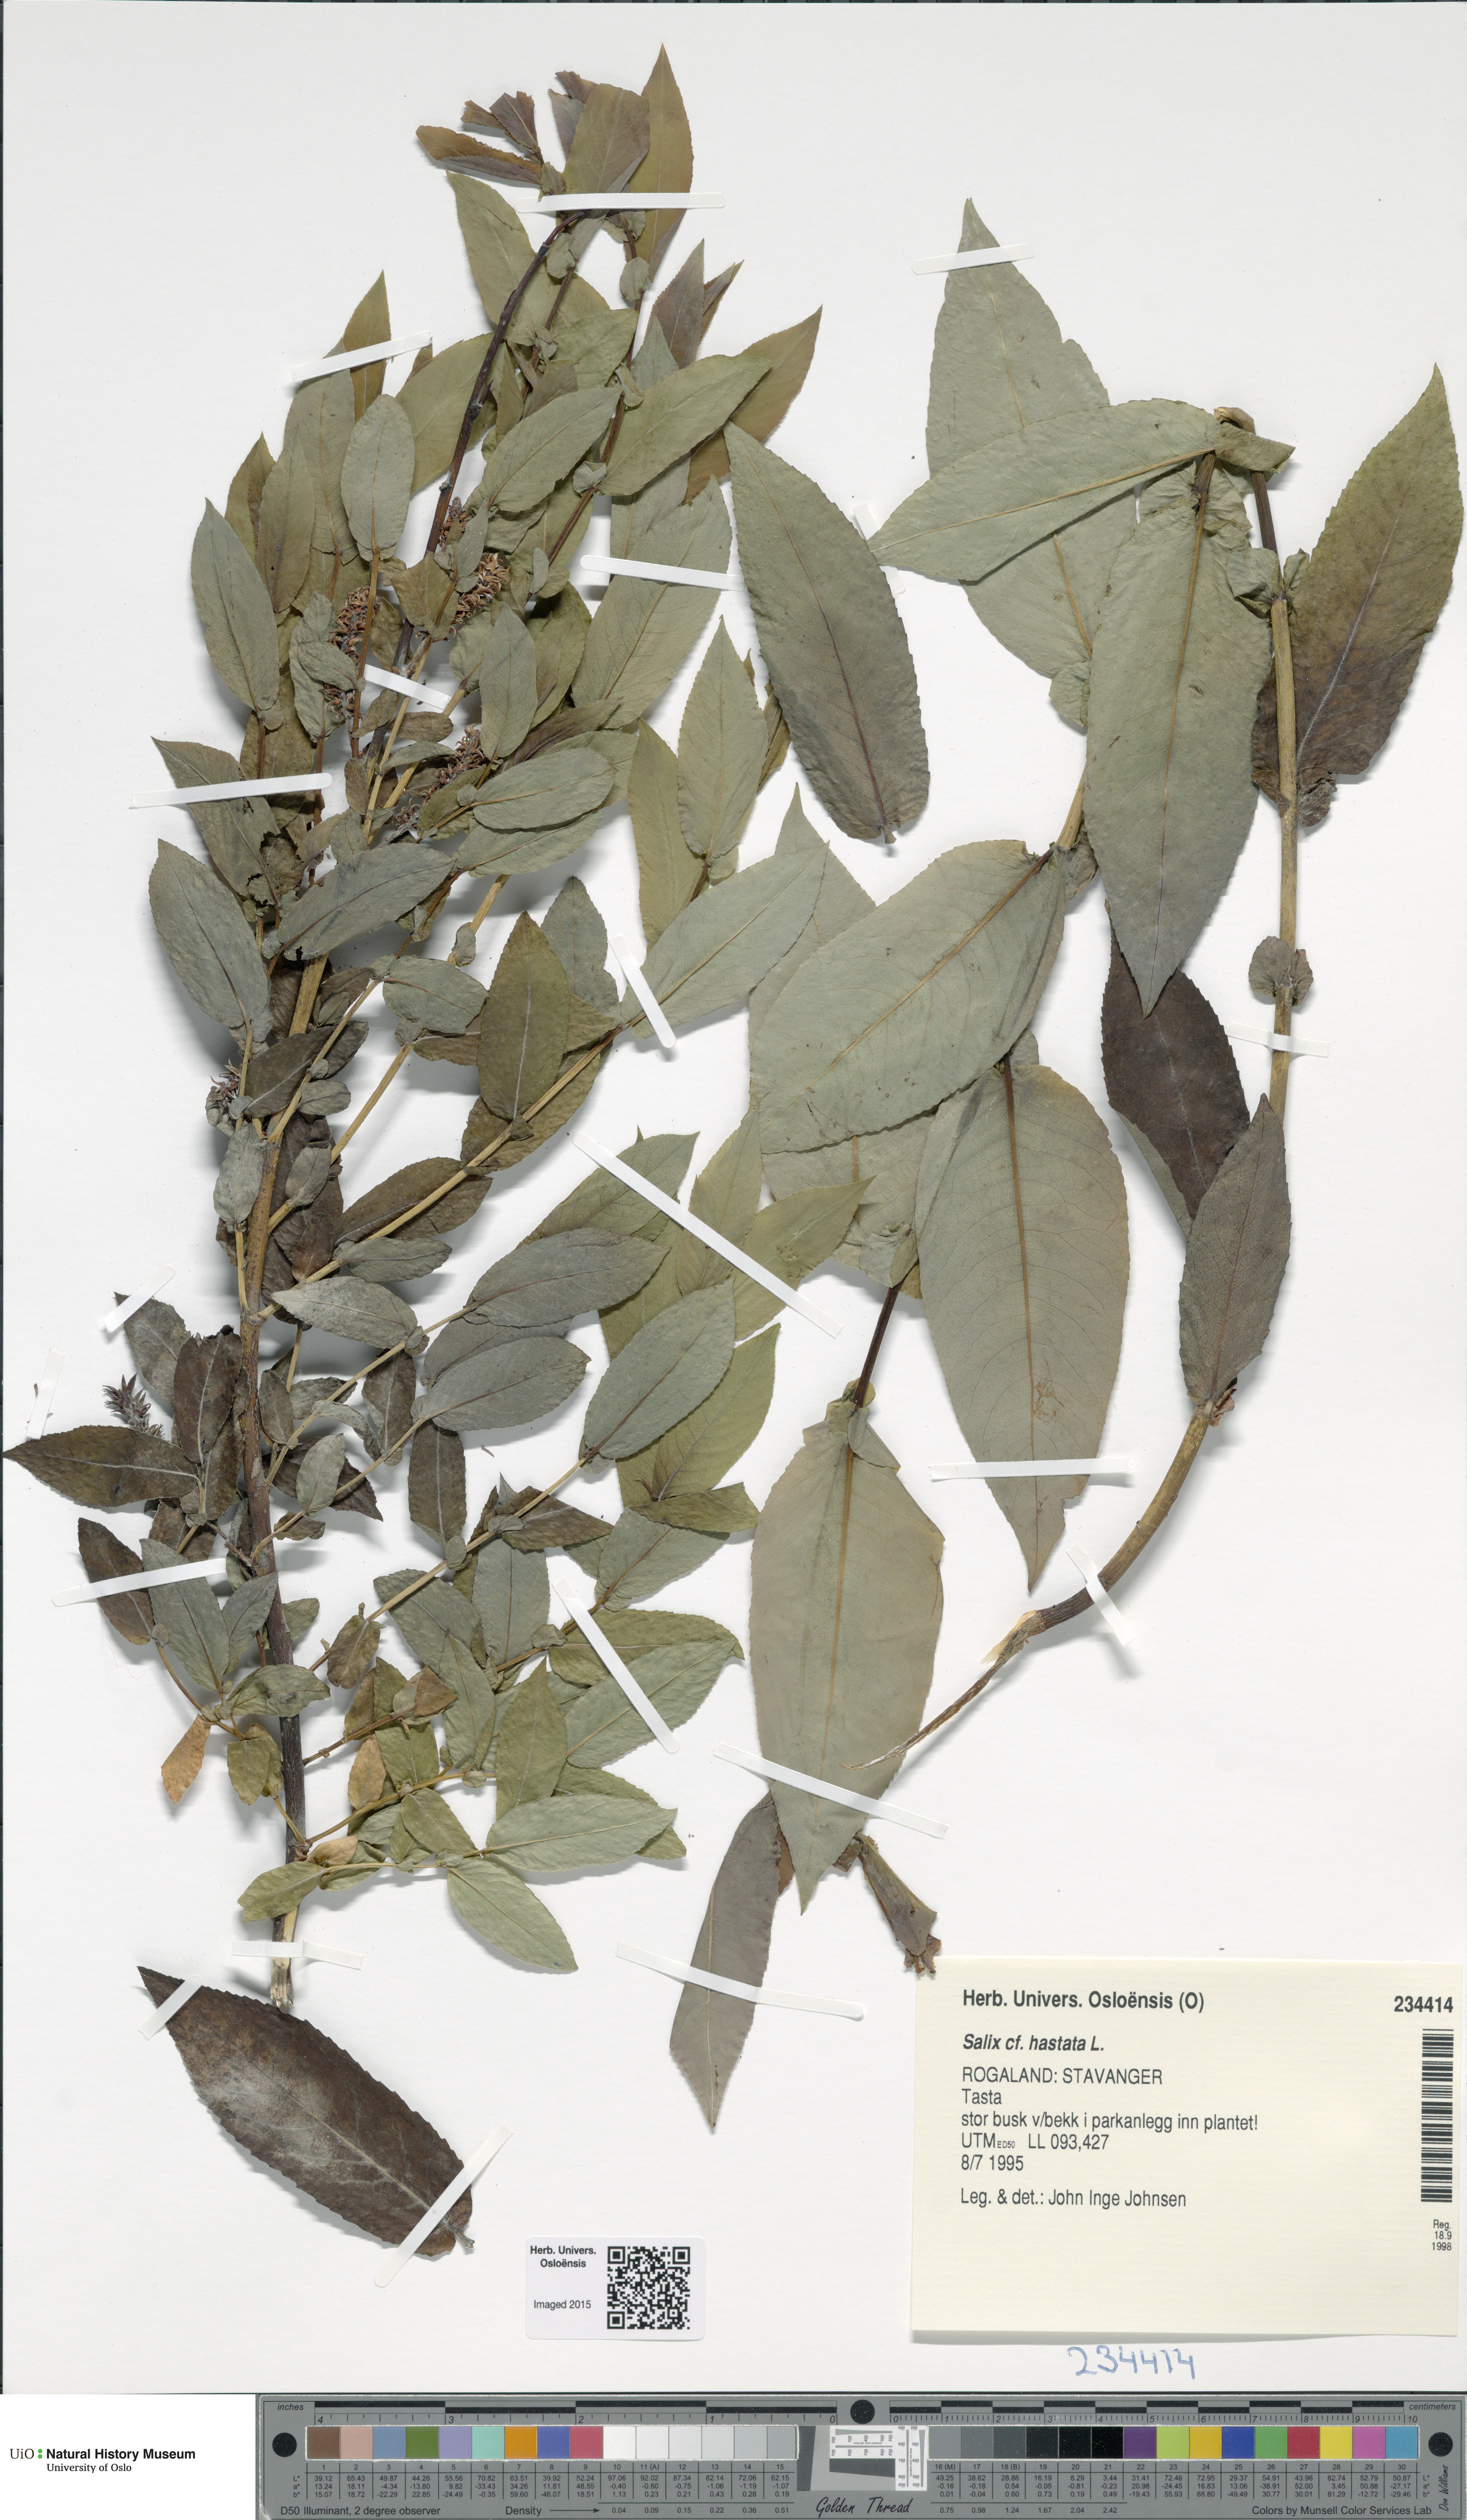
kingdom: Plantae
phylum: Tracheophyta
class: Magnoliopsida
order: Malpighiales
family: Salicaceae
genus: Salix
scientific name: Salix hastata
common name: Halberd willow
